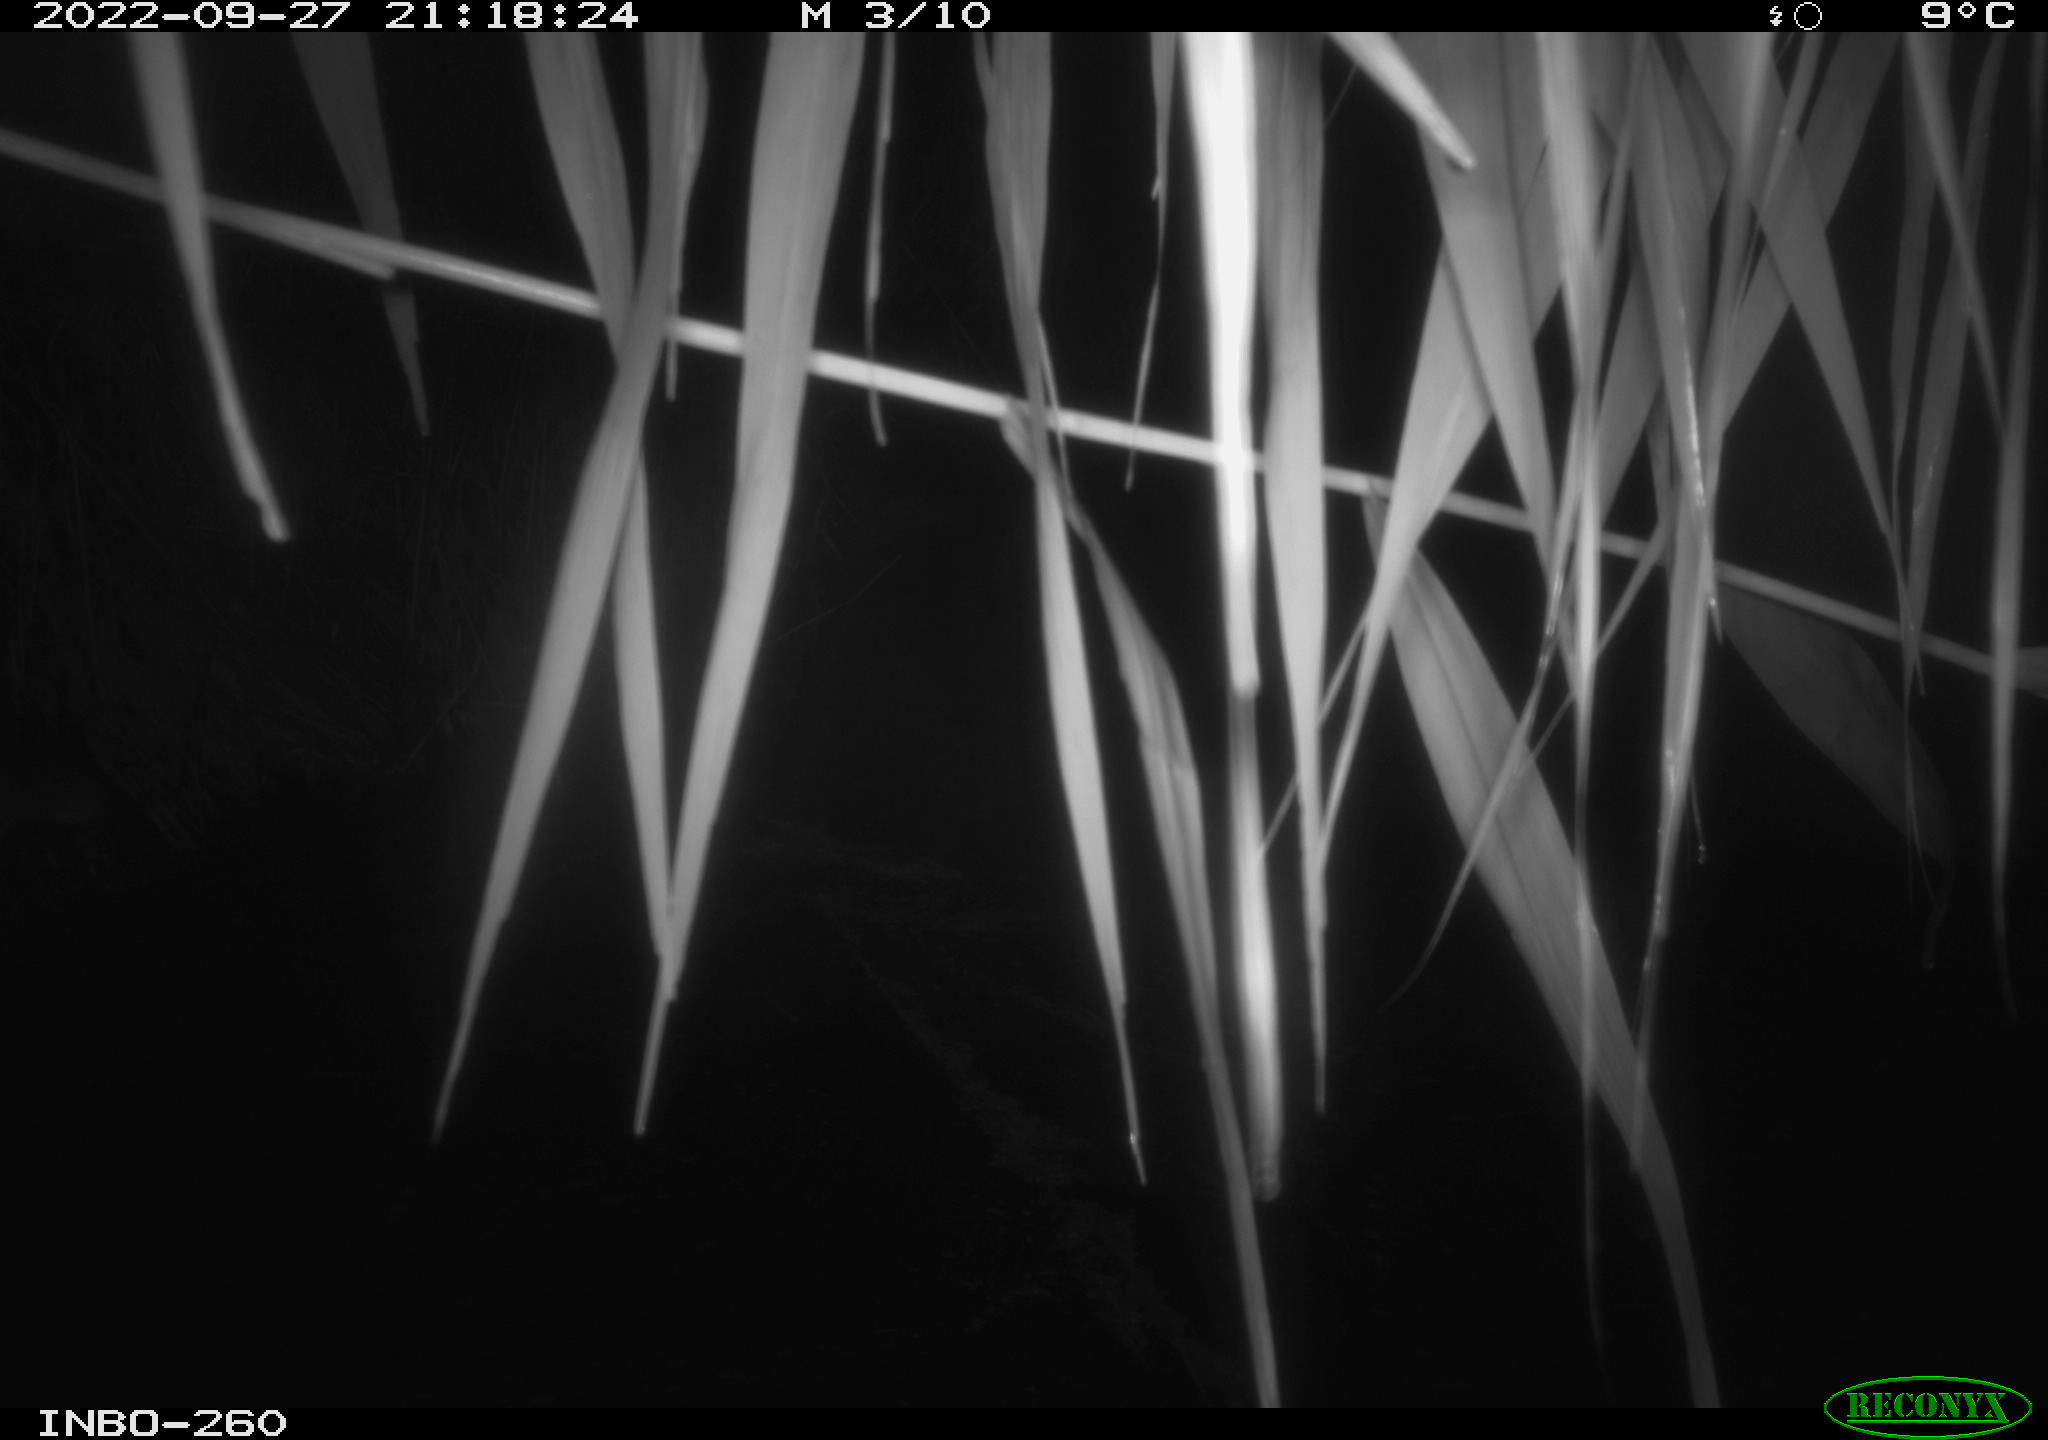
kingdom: Animalia
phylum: Chordata
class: Mammalia
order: Rodentia
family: Muridae
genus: Rattus
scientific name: Rattus norvegicus
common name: Brown rat
